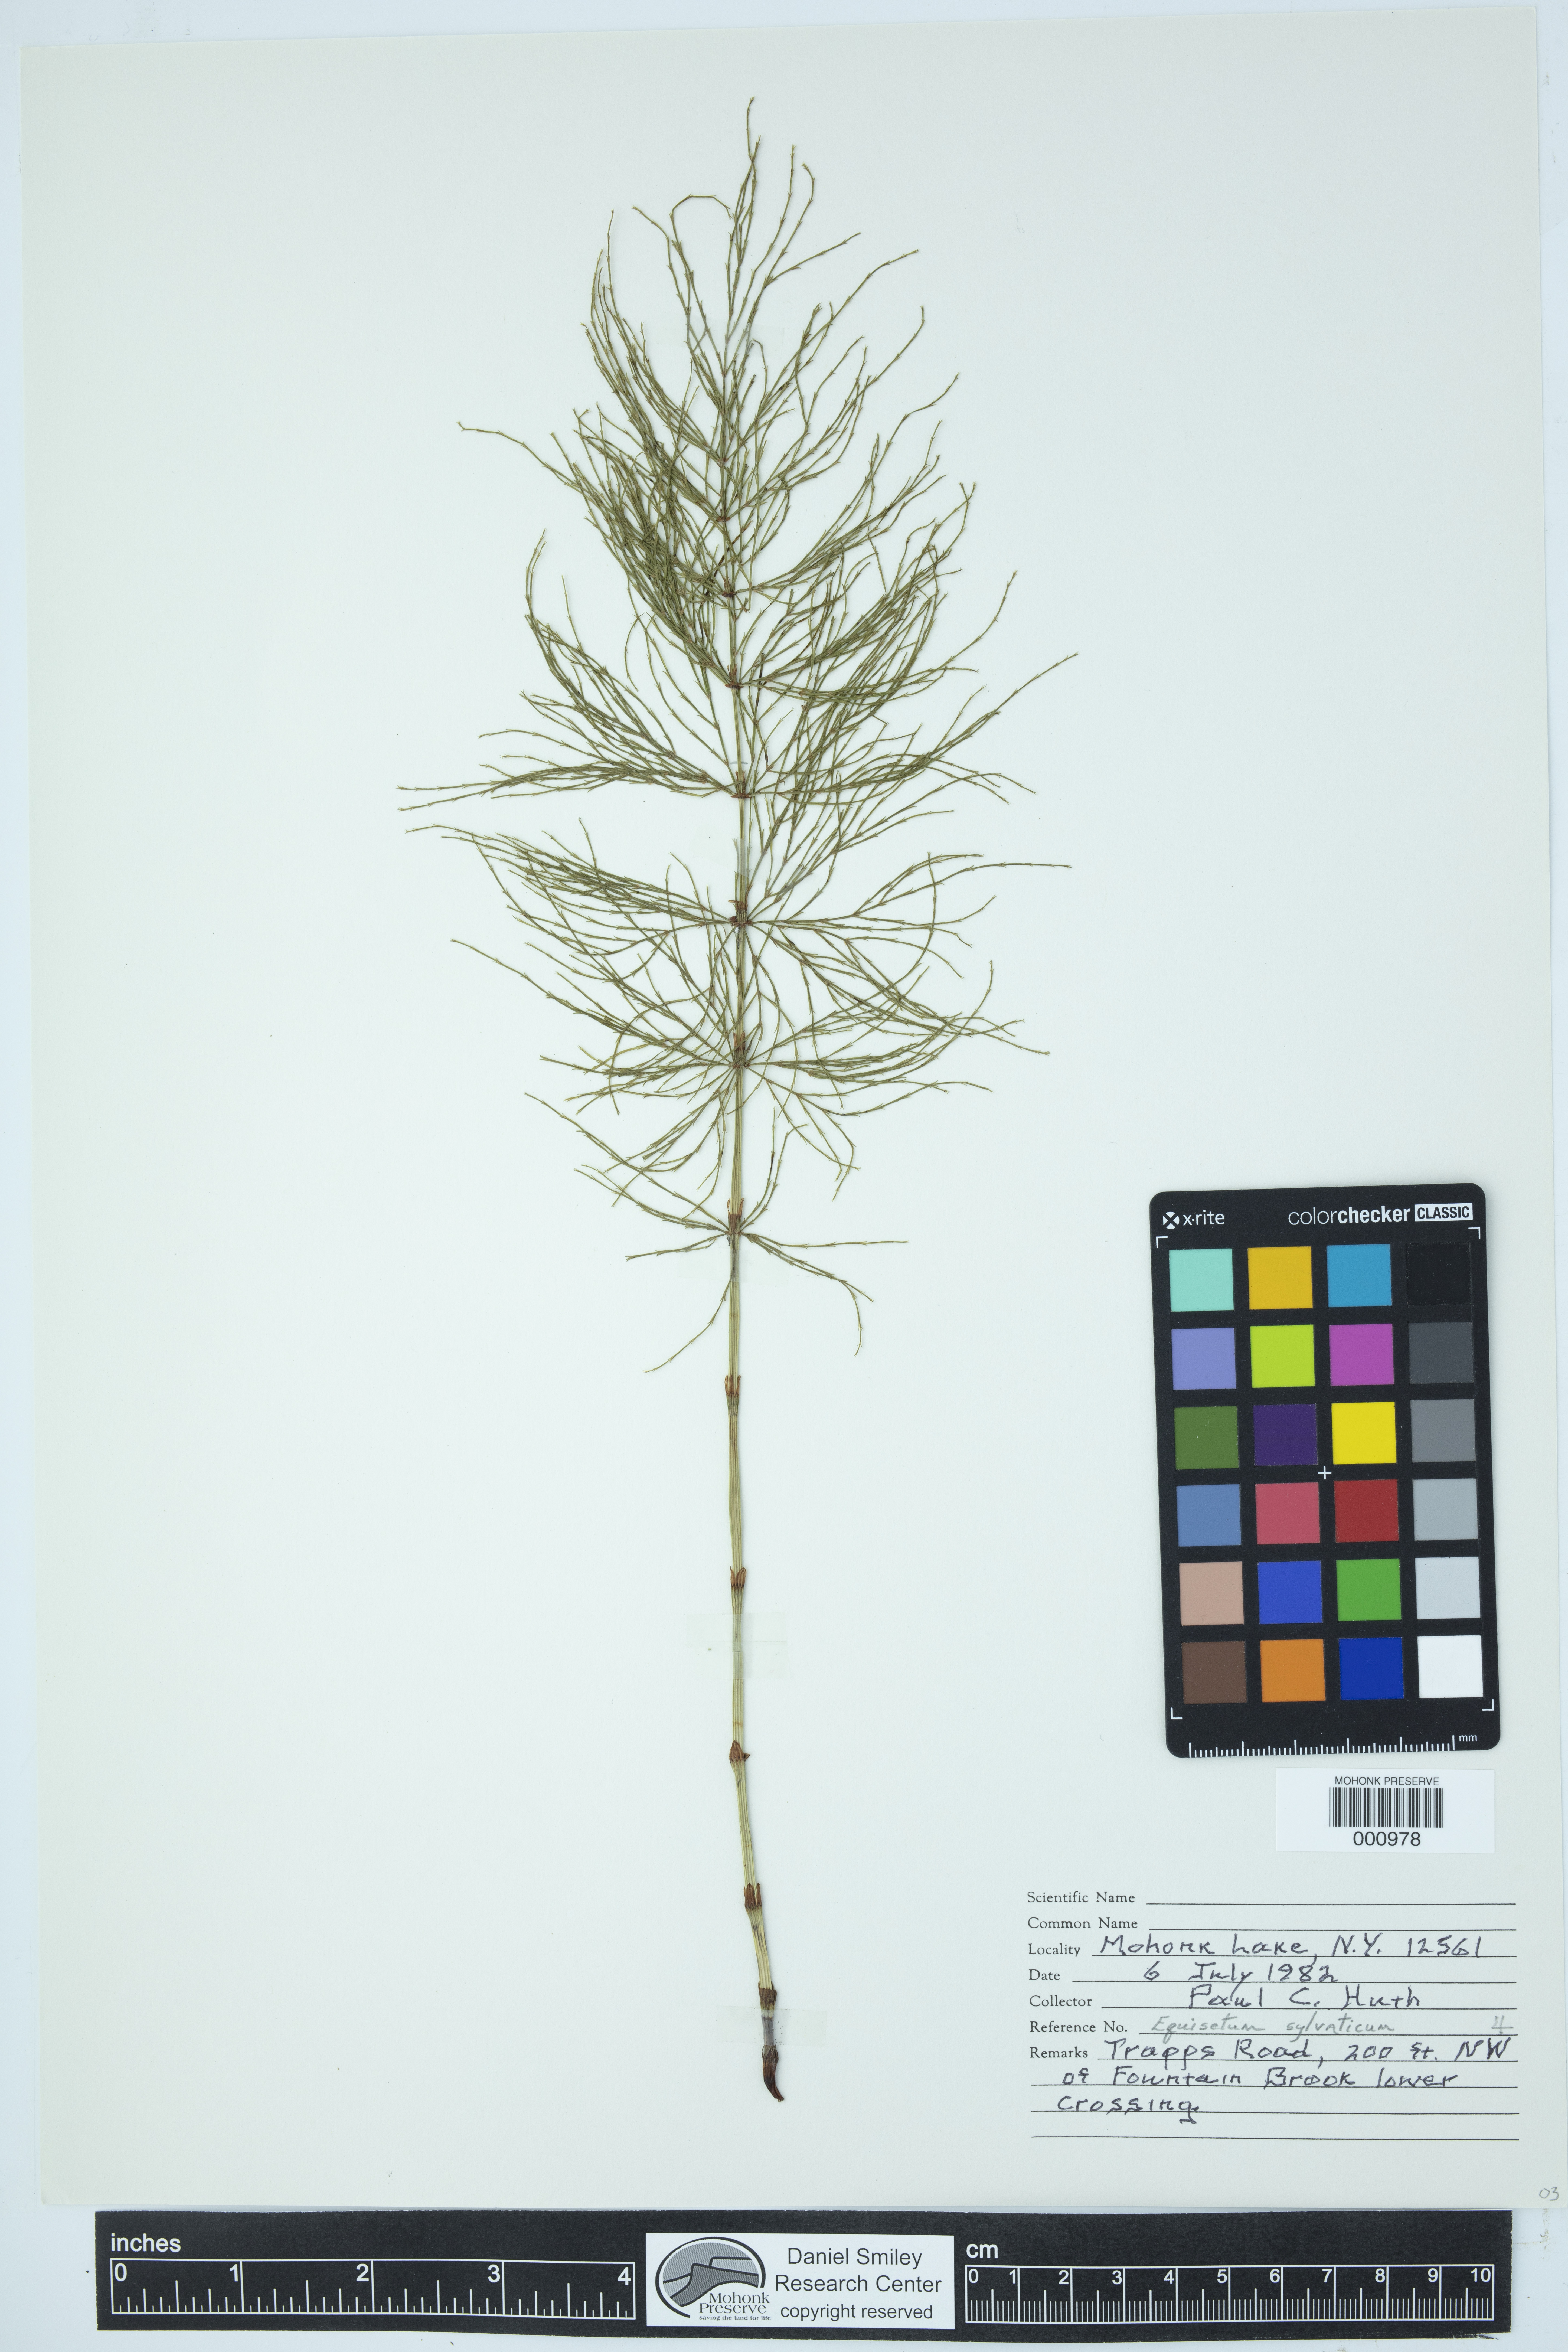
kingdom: Plantae
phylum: Tracheophyta
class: Polypodiopsida
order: Equisetales
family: Equisetaceae
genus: Equisetum
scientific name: Equisetum sylvaticum
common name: Wood horsetail
